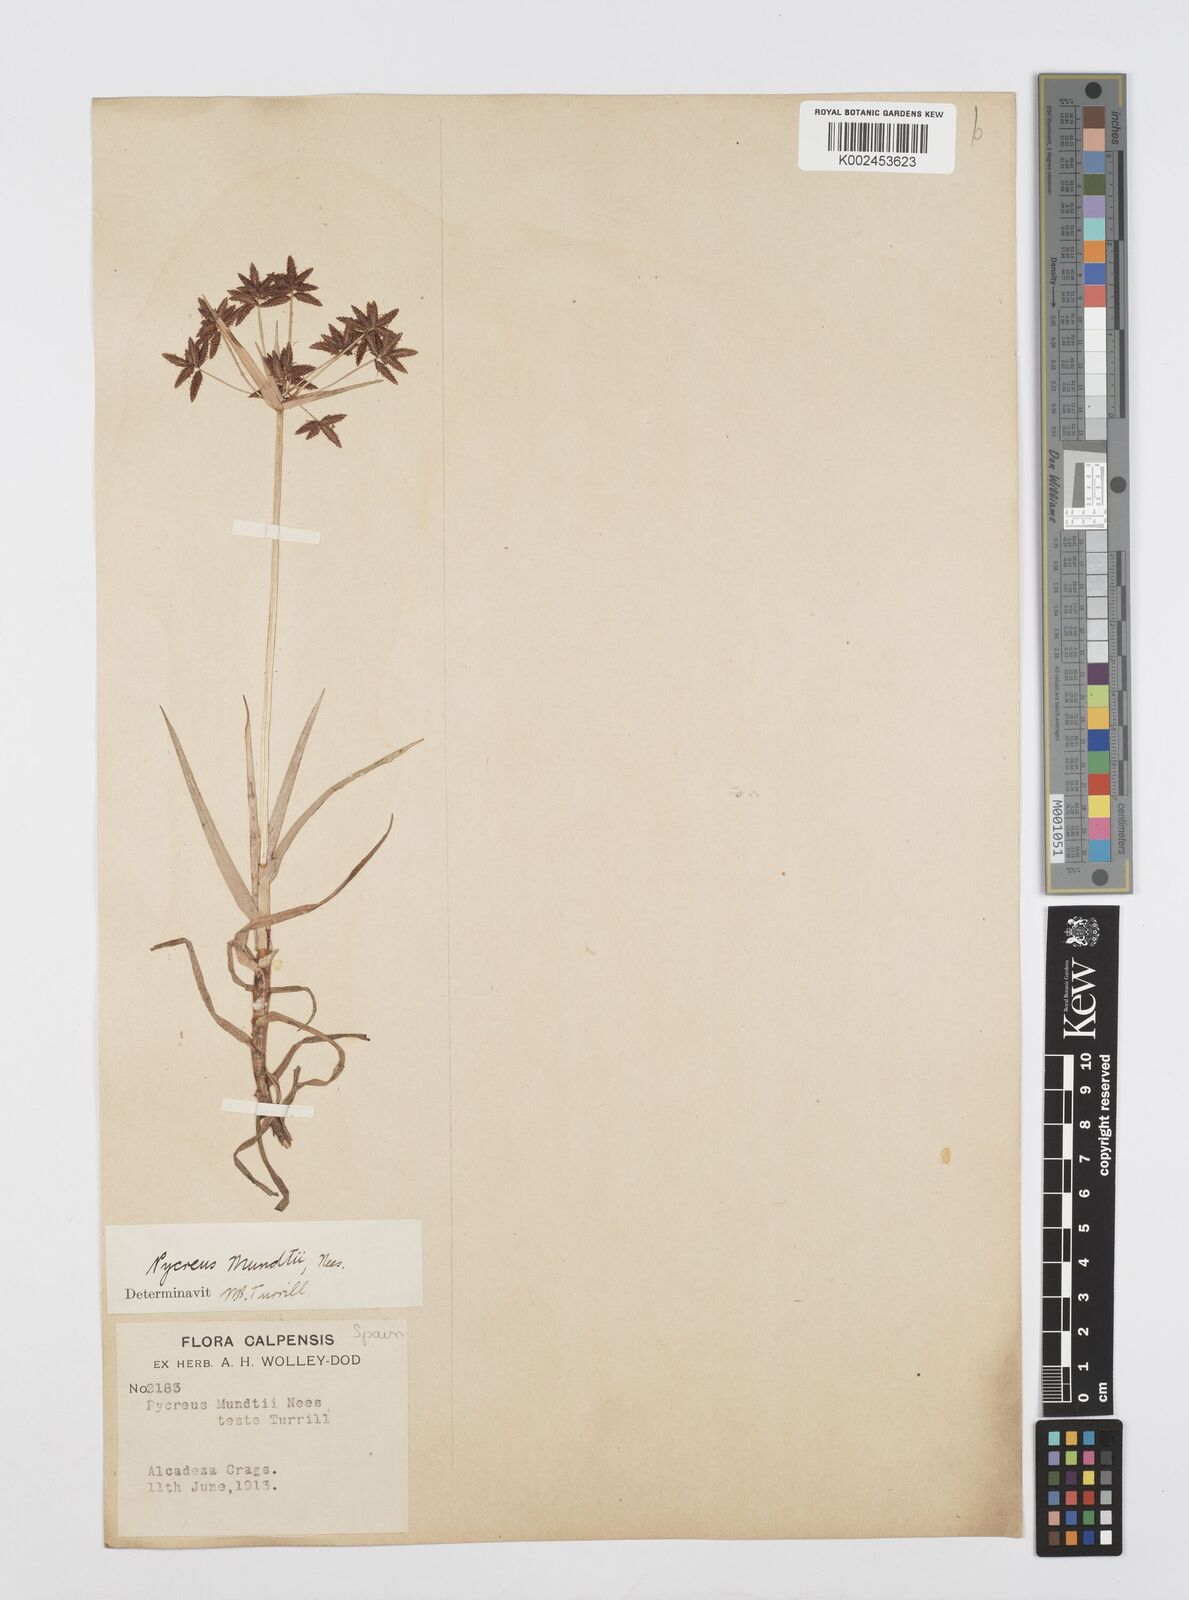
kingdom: Plantae
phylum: Tracheophyta
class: Liliopsida
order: Poales
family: Cyperaceae
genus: Cyperus
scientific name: Cyperus mundii
